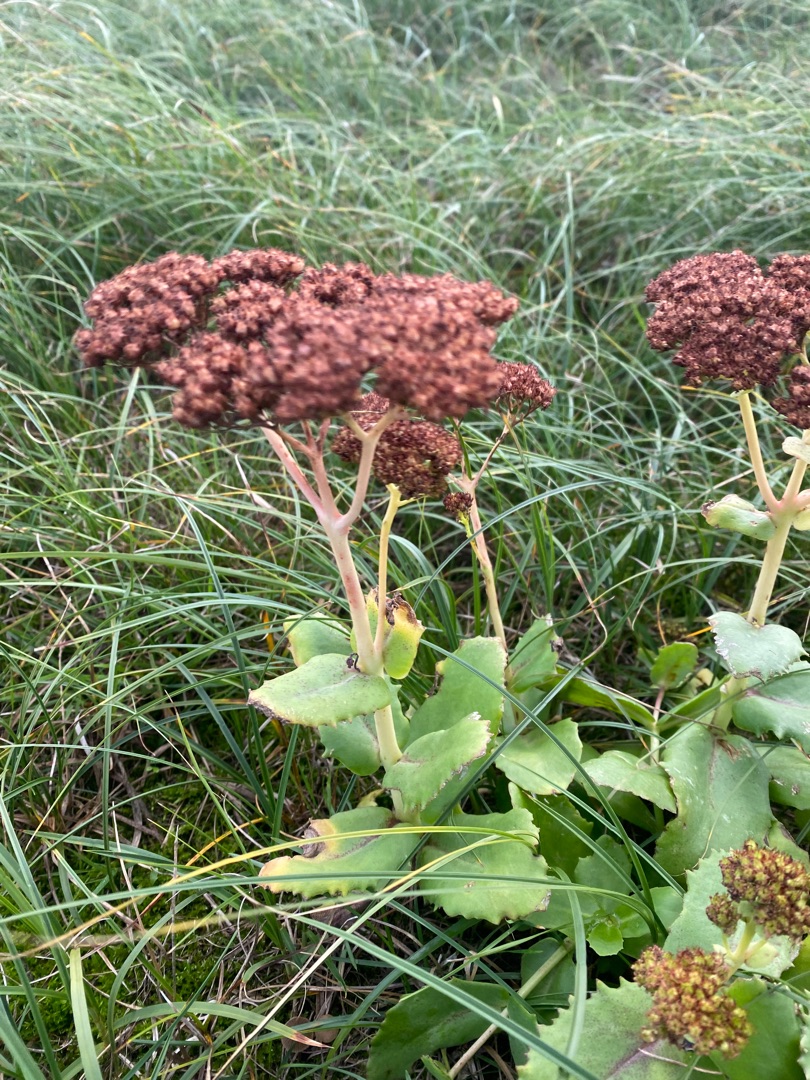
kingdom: Plantae
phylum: Tracheophyta
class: Magnoliopsida
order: Saxifragales
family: Crassulaceae
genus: Hylotelephium
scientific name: Hylotelephium telephium
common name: Sankthansurt
